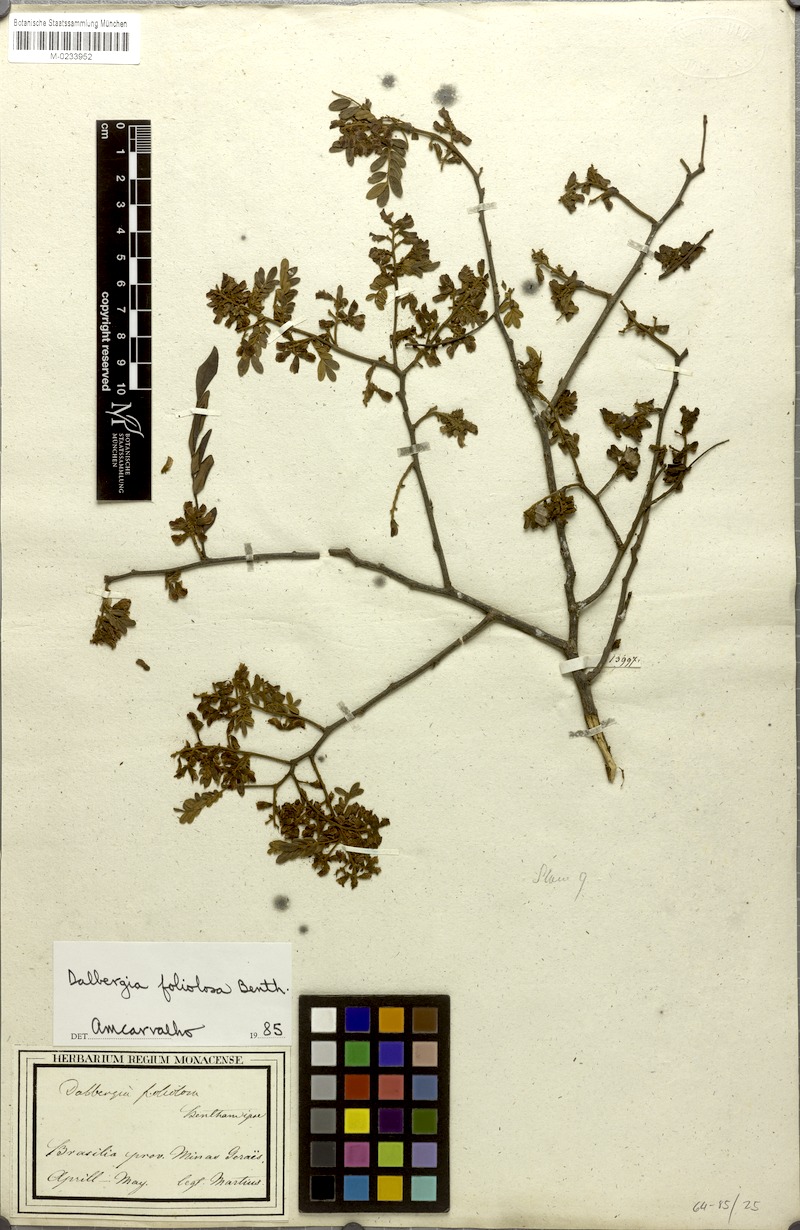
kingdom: Plantae
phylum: Tracheophyta
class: Magnoliopsida
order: Fabales
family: Fabaceae
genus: Dalbergia
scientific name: Dalbergia foliolosa
